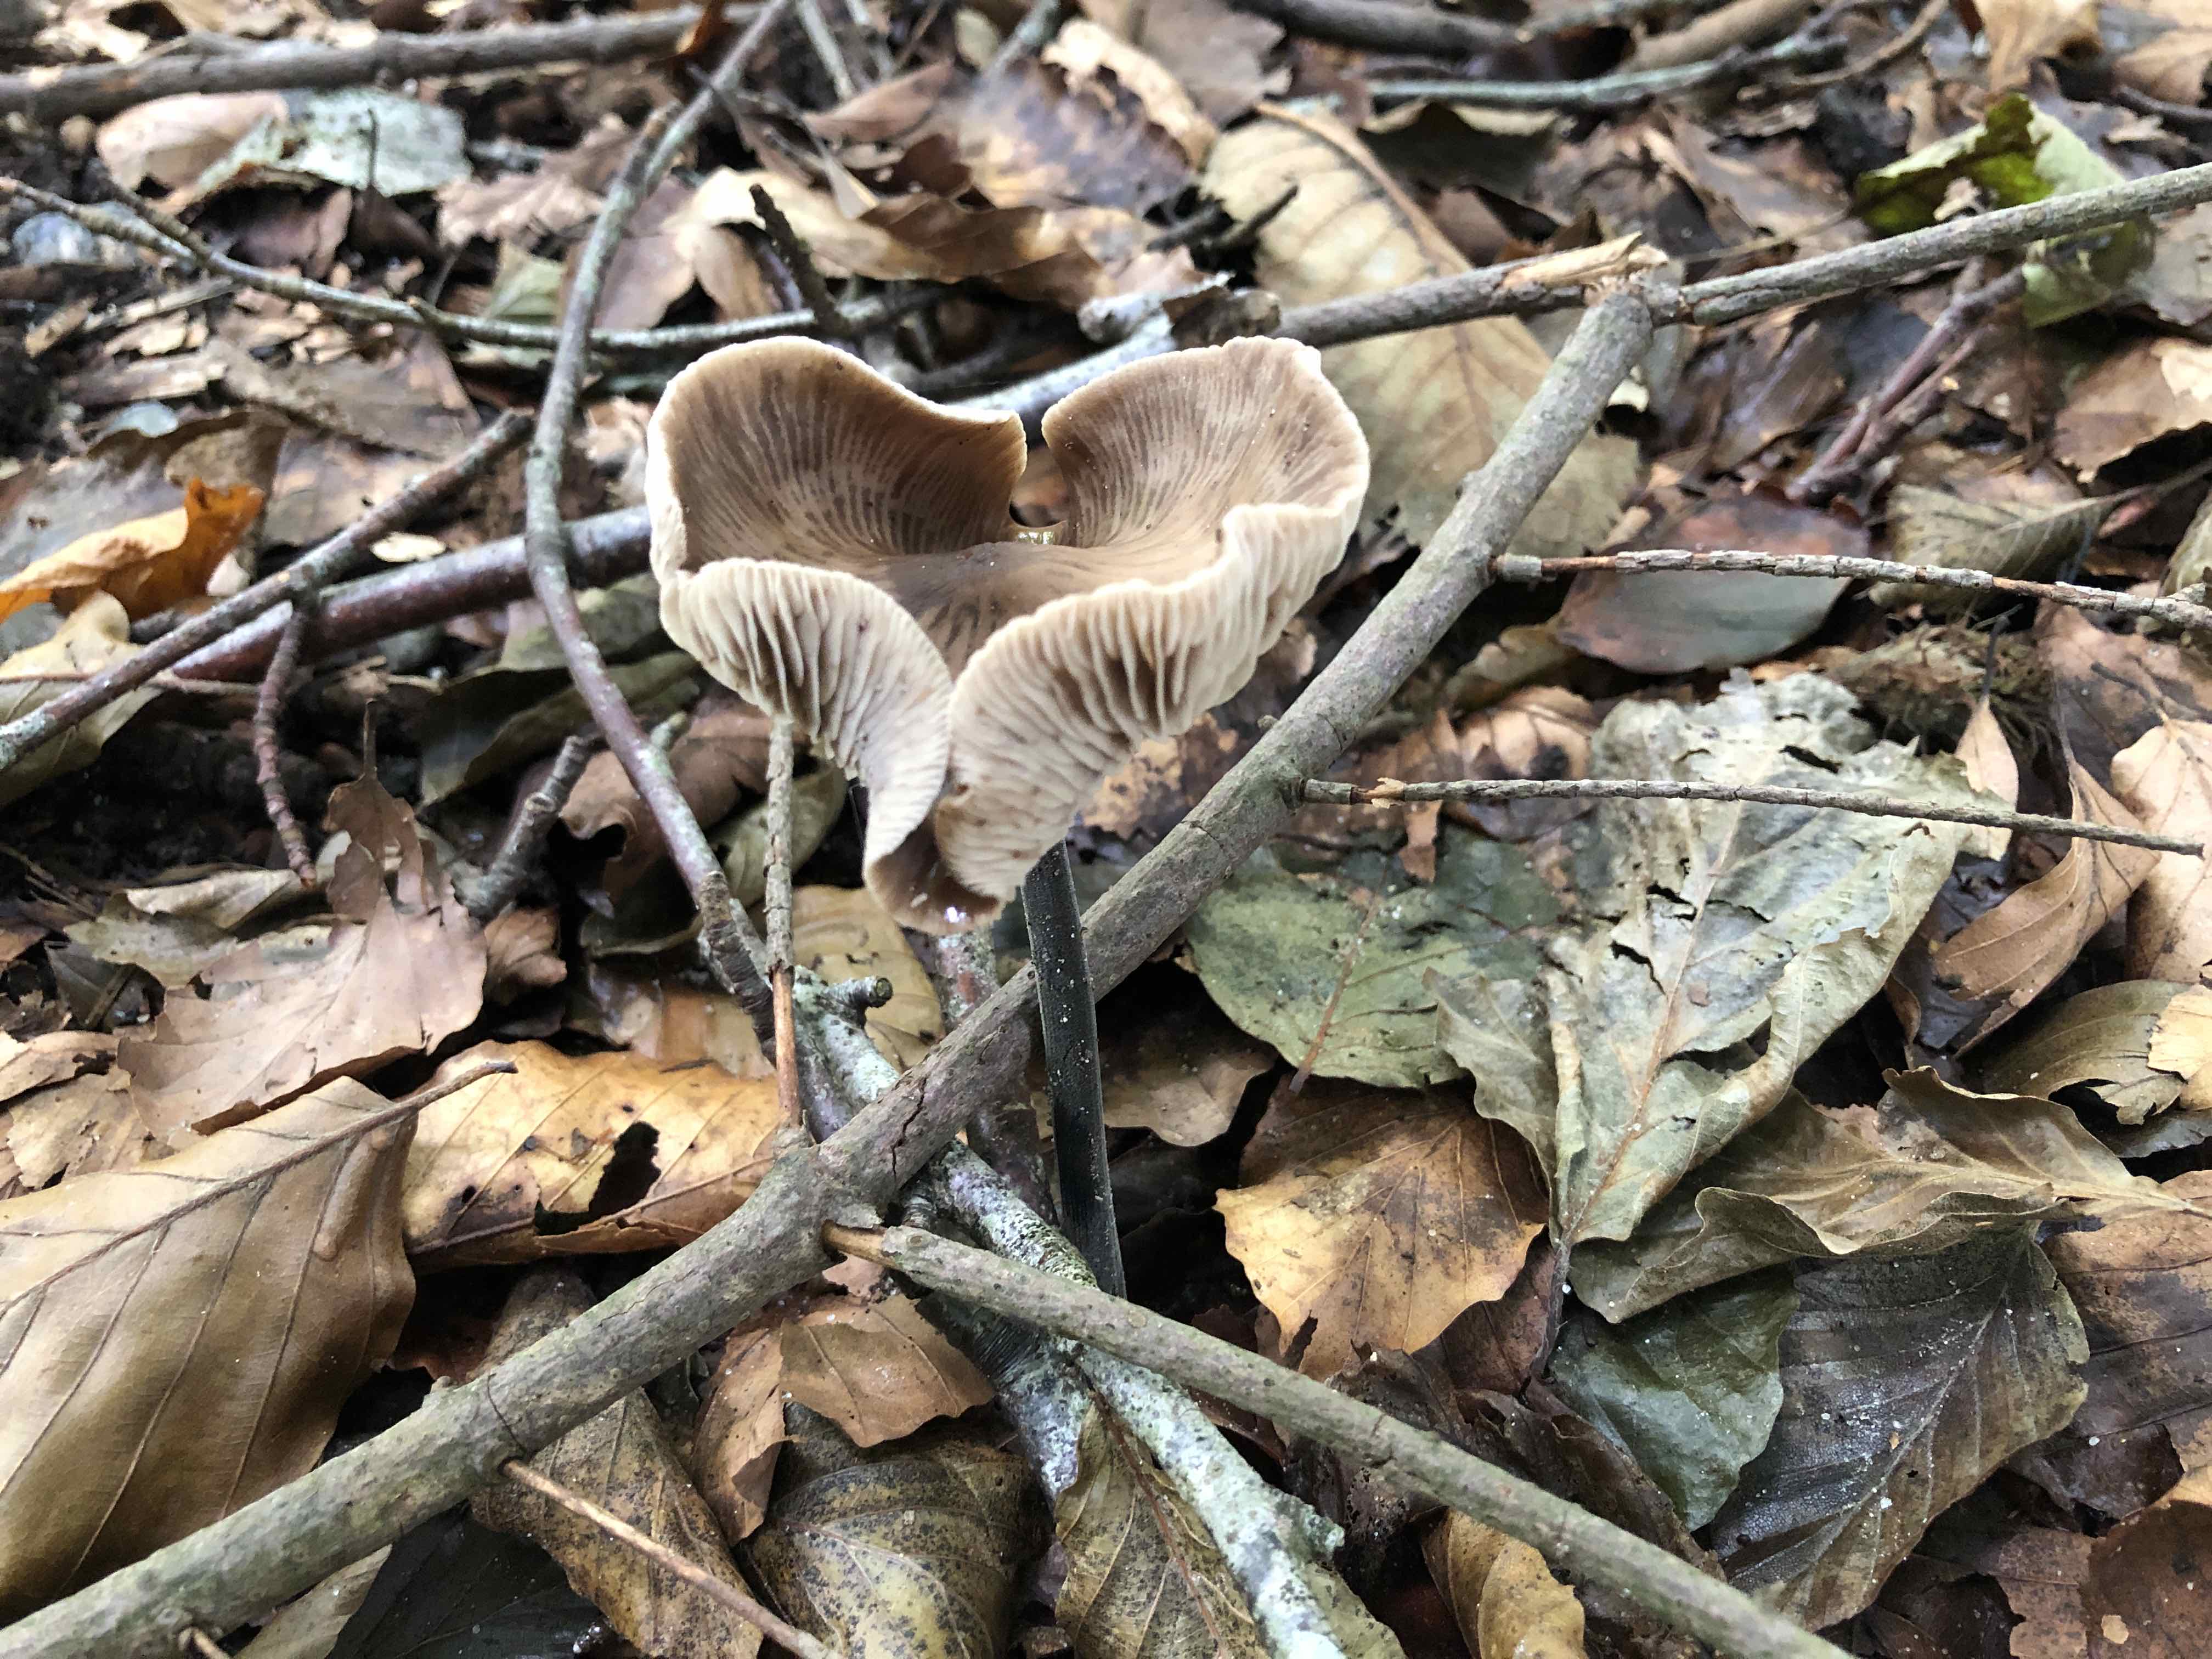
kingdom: Fungi
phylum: Basidiomycota
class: Agaricomycetes
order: Agaricales
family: Omphalotaceae
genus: Mycetinis
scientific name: Mycetinis alliaceus
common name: stor løghat
